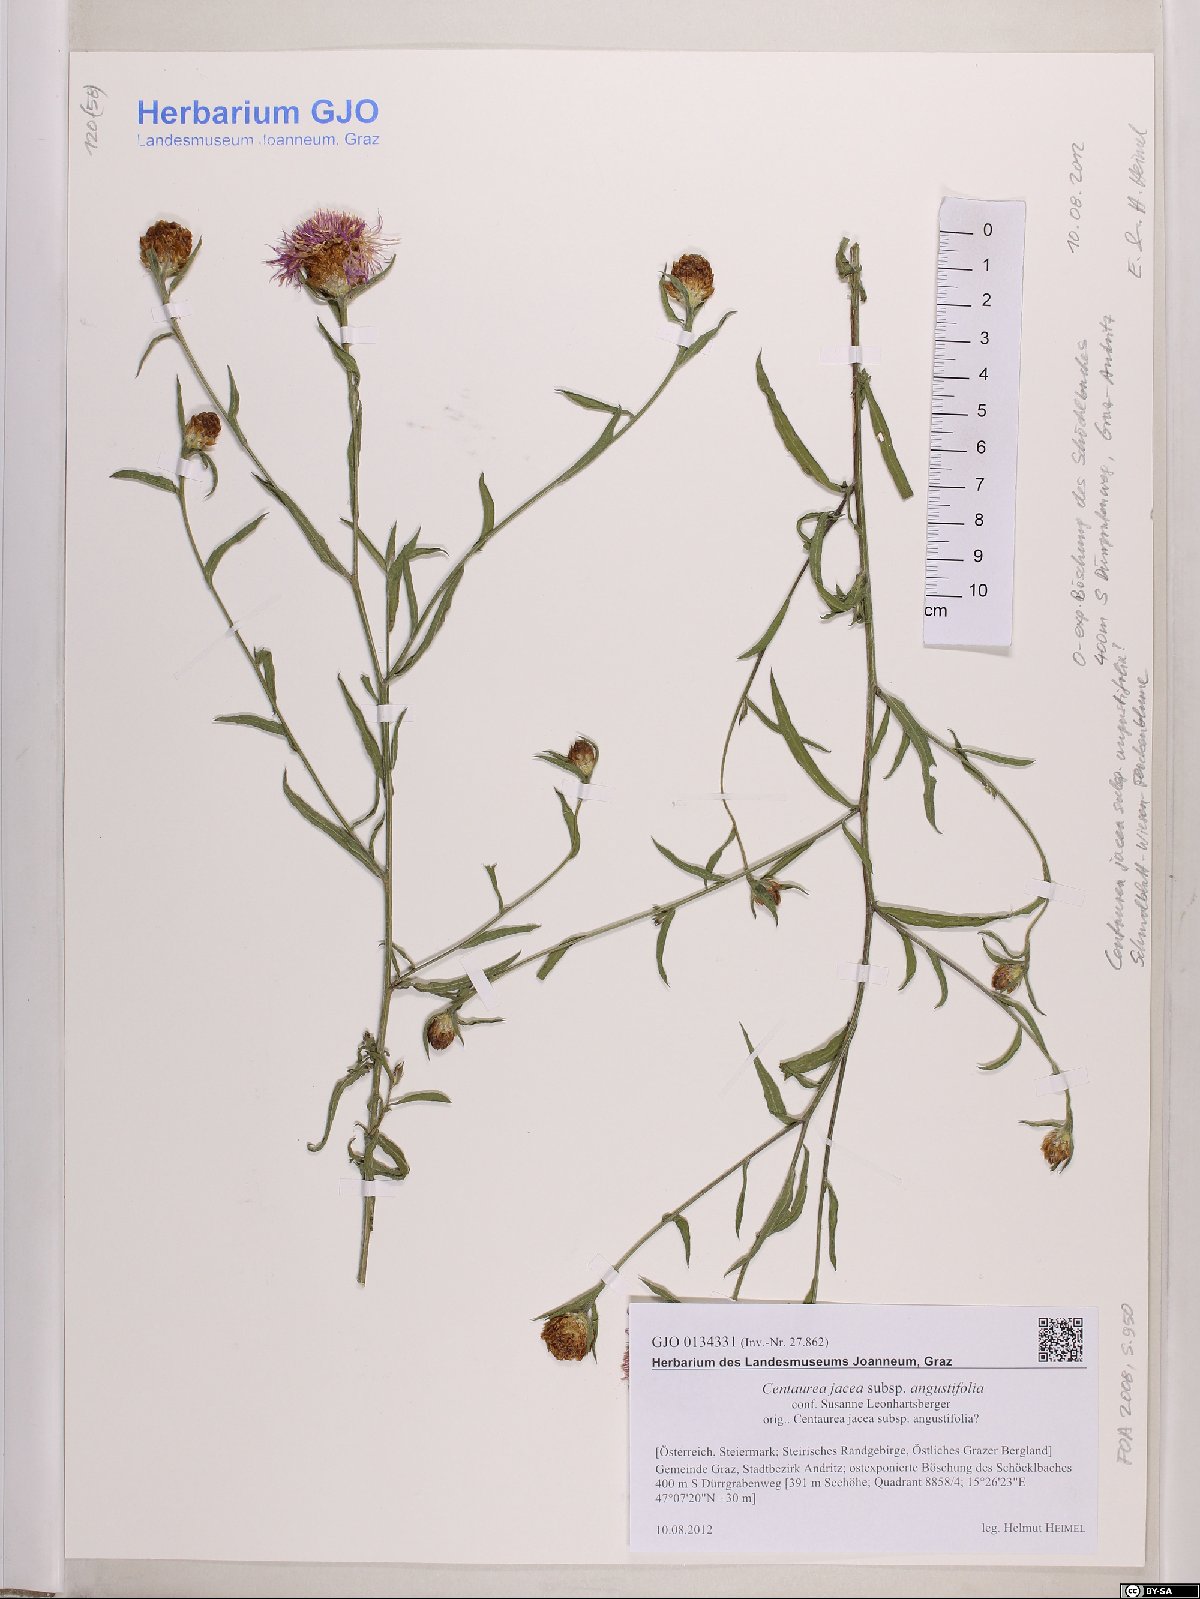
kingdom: Plantae
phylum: Tracheophyta
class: Magnoliopsida
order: Asterales
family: Asteraceae
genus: Centaurea
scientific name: Centaurea pannonica
